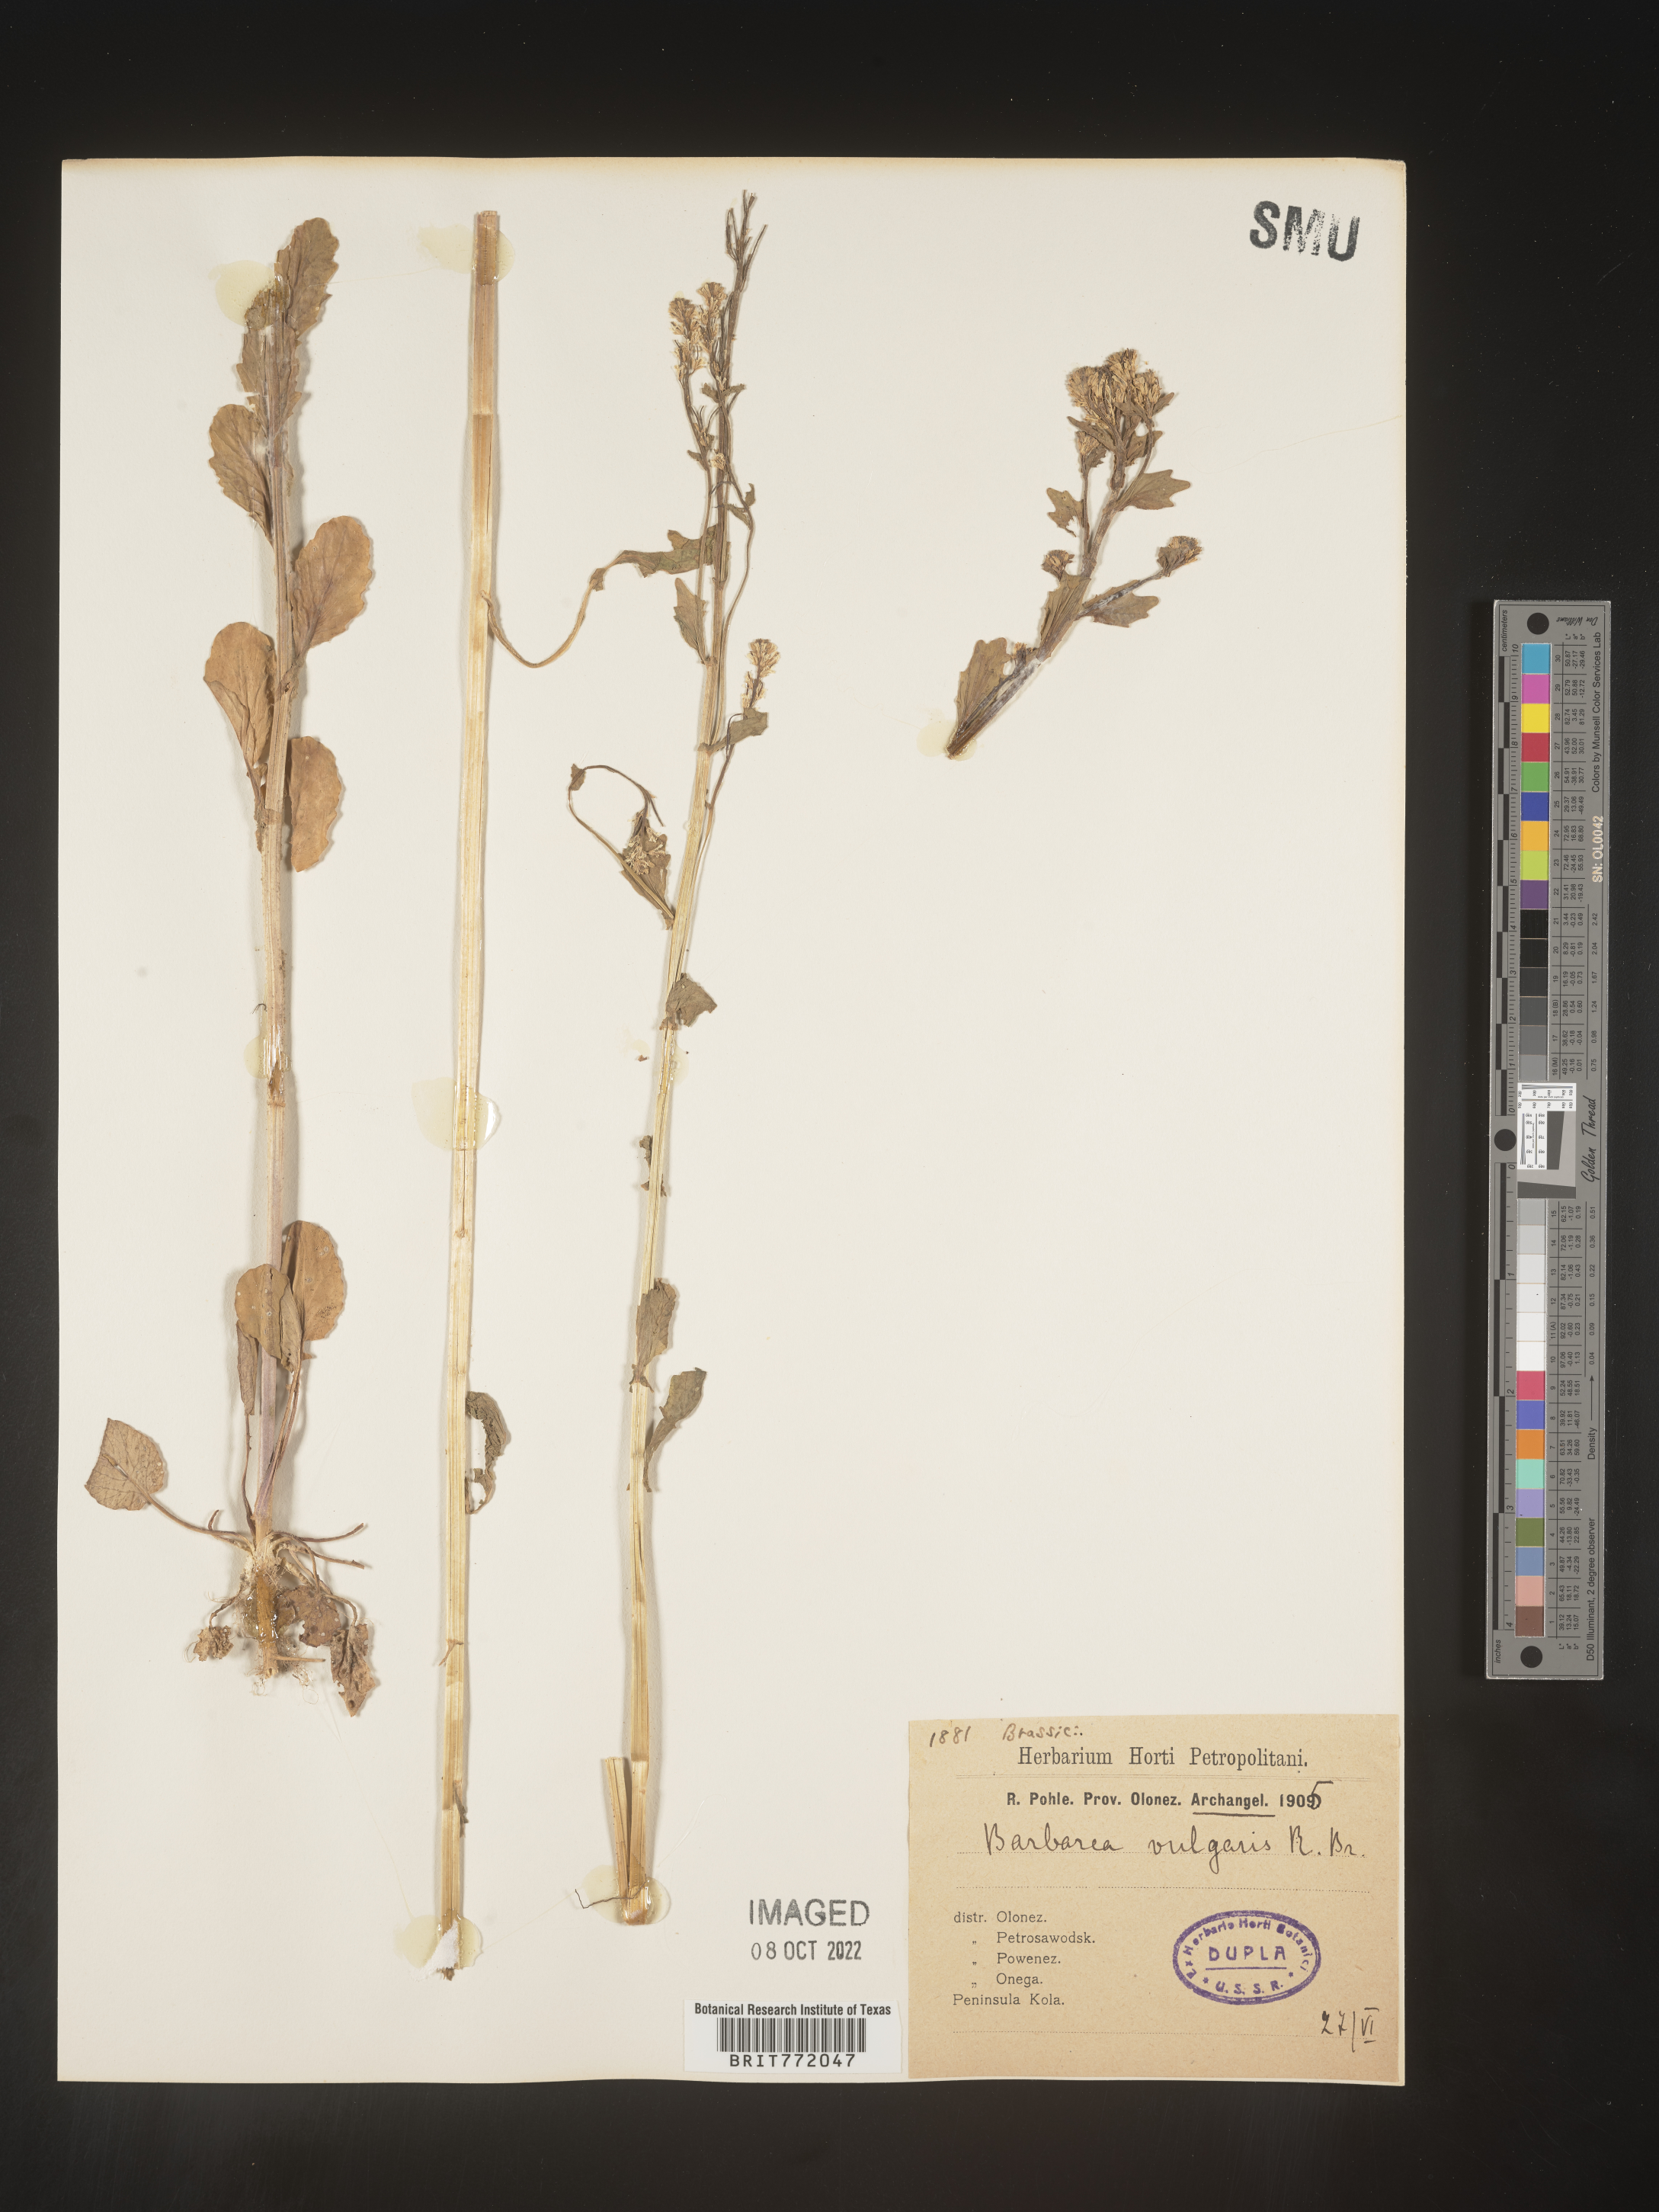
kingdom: Plantae
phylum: Tracheophyta
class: Magnoliopsida
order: Brassicales
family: Brassicaceae
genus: Barbarea
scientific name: Barbarea
